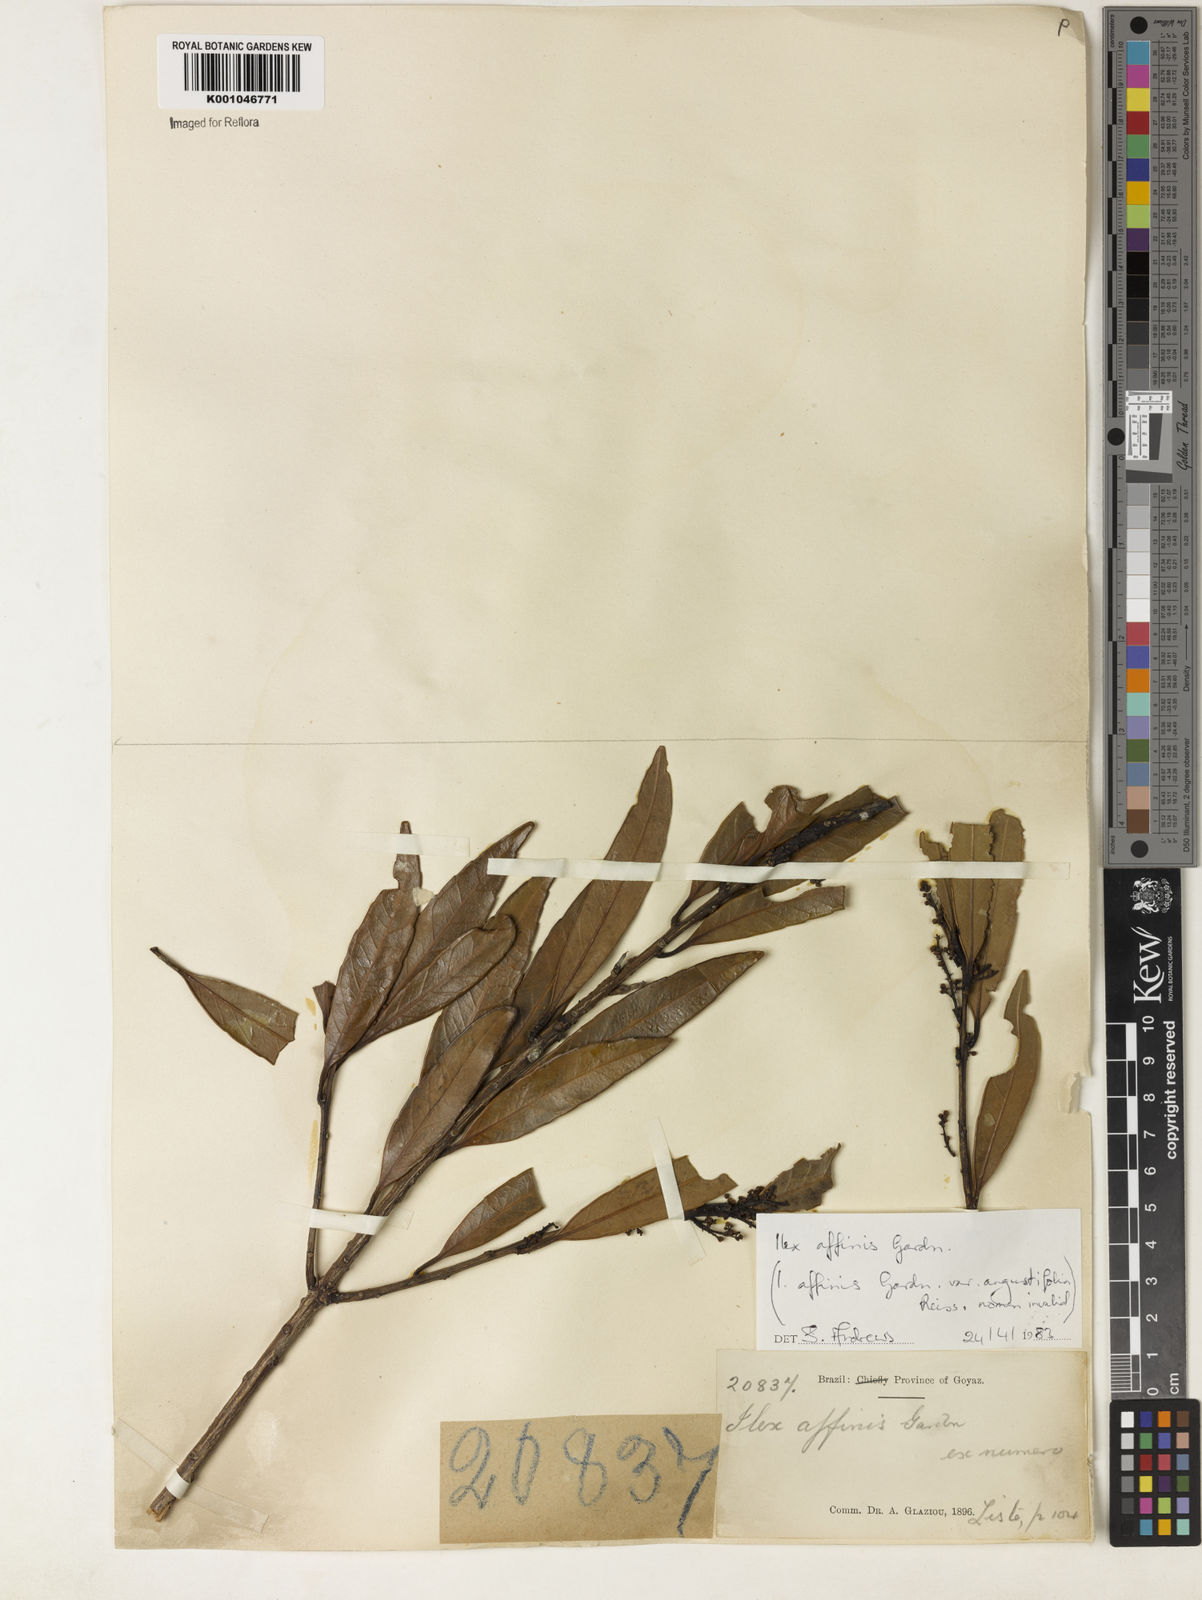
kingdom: Plantae
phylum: Tracheophyta
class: Magnoliopsida
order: Aquifoliales
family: Aquifoliaceae
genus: Ilex
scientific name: Ilex affinis
